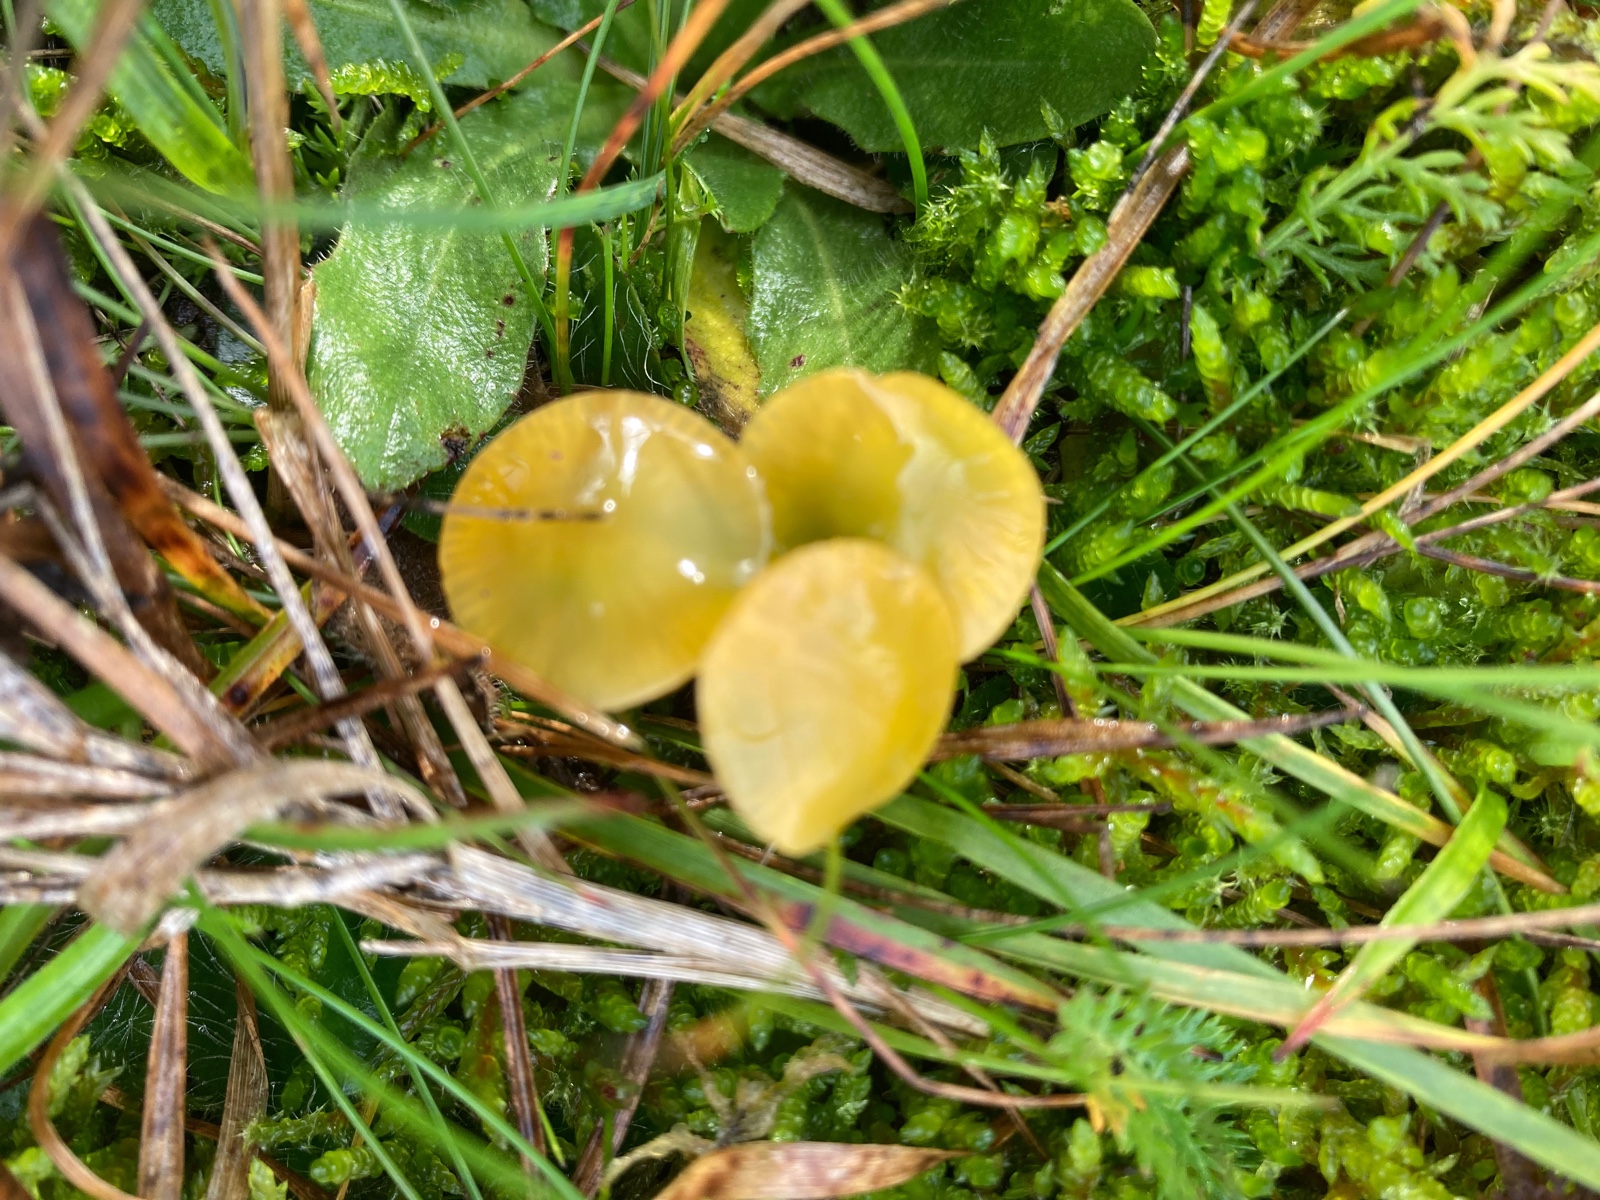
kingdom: Fungi
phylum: Basidiomycota
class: Agaricomycetes
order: Agaricales
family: Hygrophoraceae
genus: Gliophorus
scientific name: Gliophorus psittacinus
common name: papegøje-vokshat
